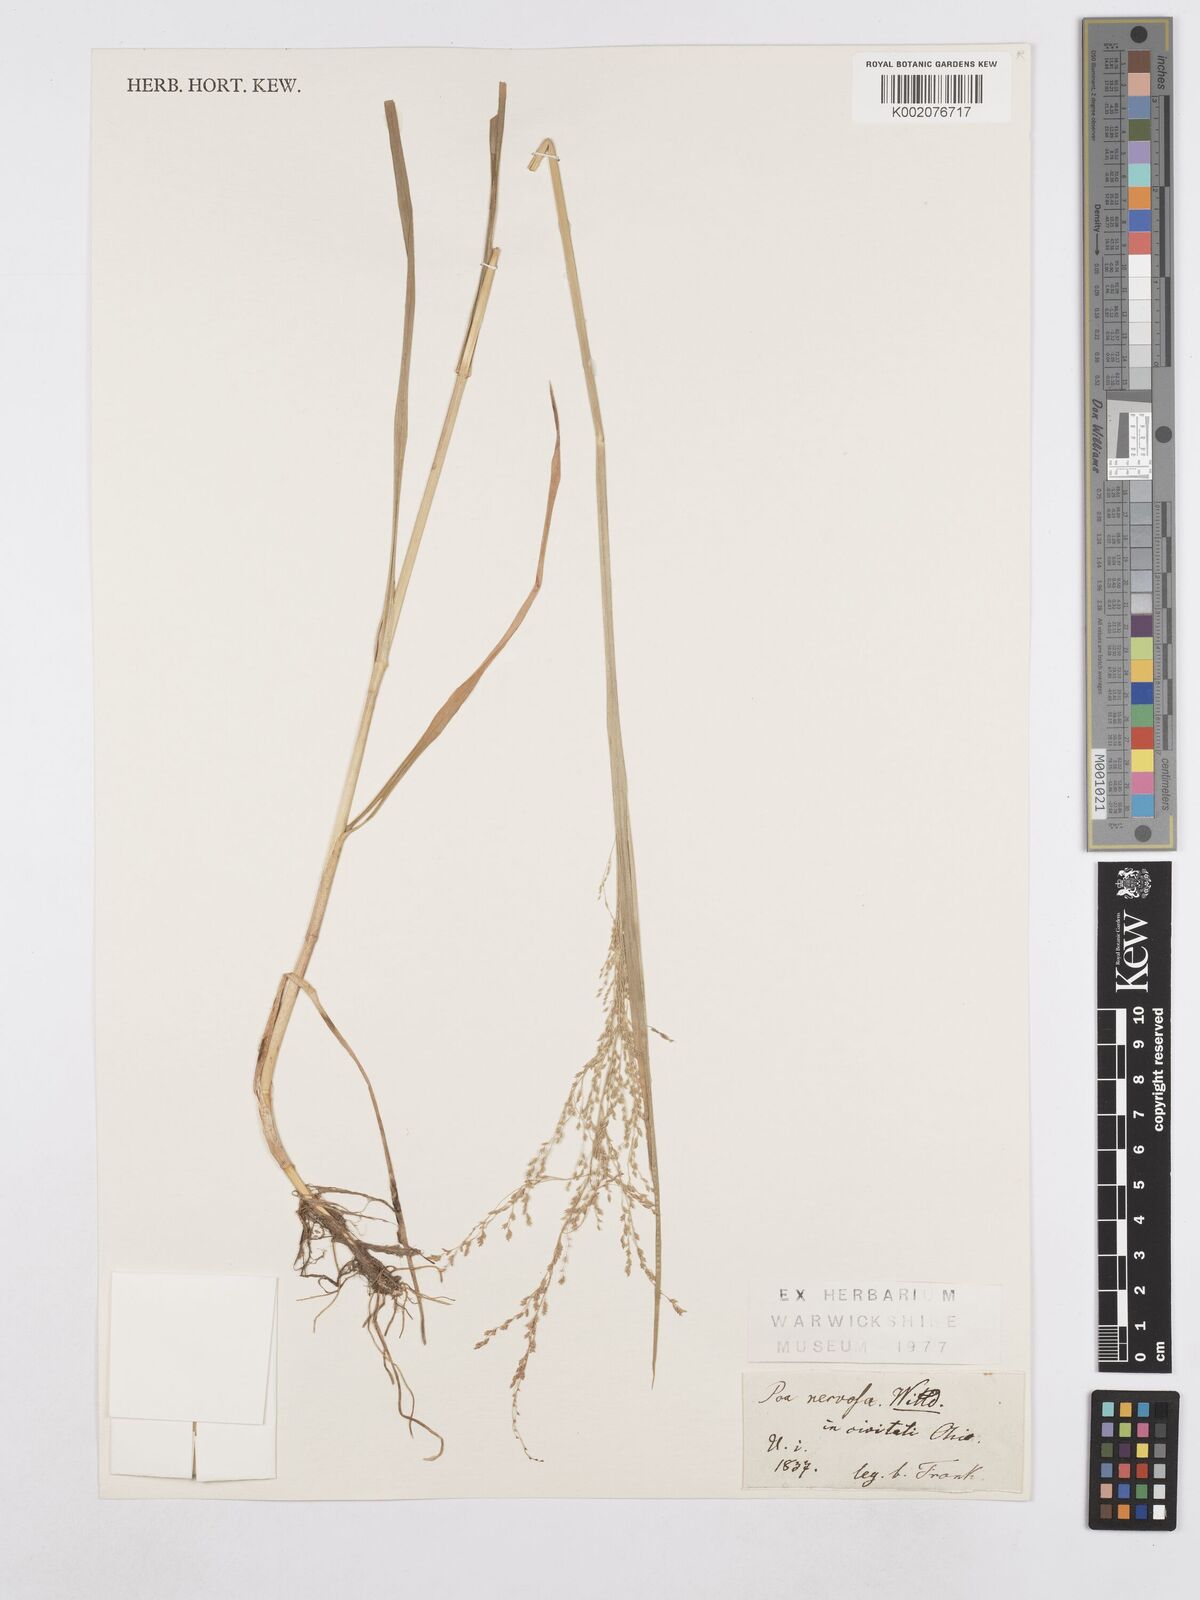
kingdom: Plantae
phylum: Tracheophyta
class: Liliopsida
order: Poales
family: Poaceae
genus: Poa
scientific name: Poa nervosa
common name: Hooker's bluegrass
